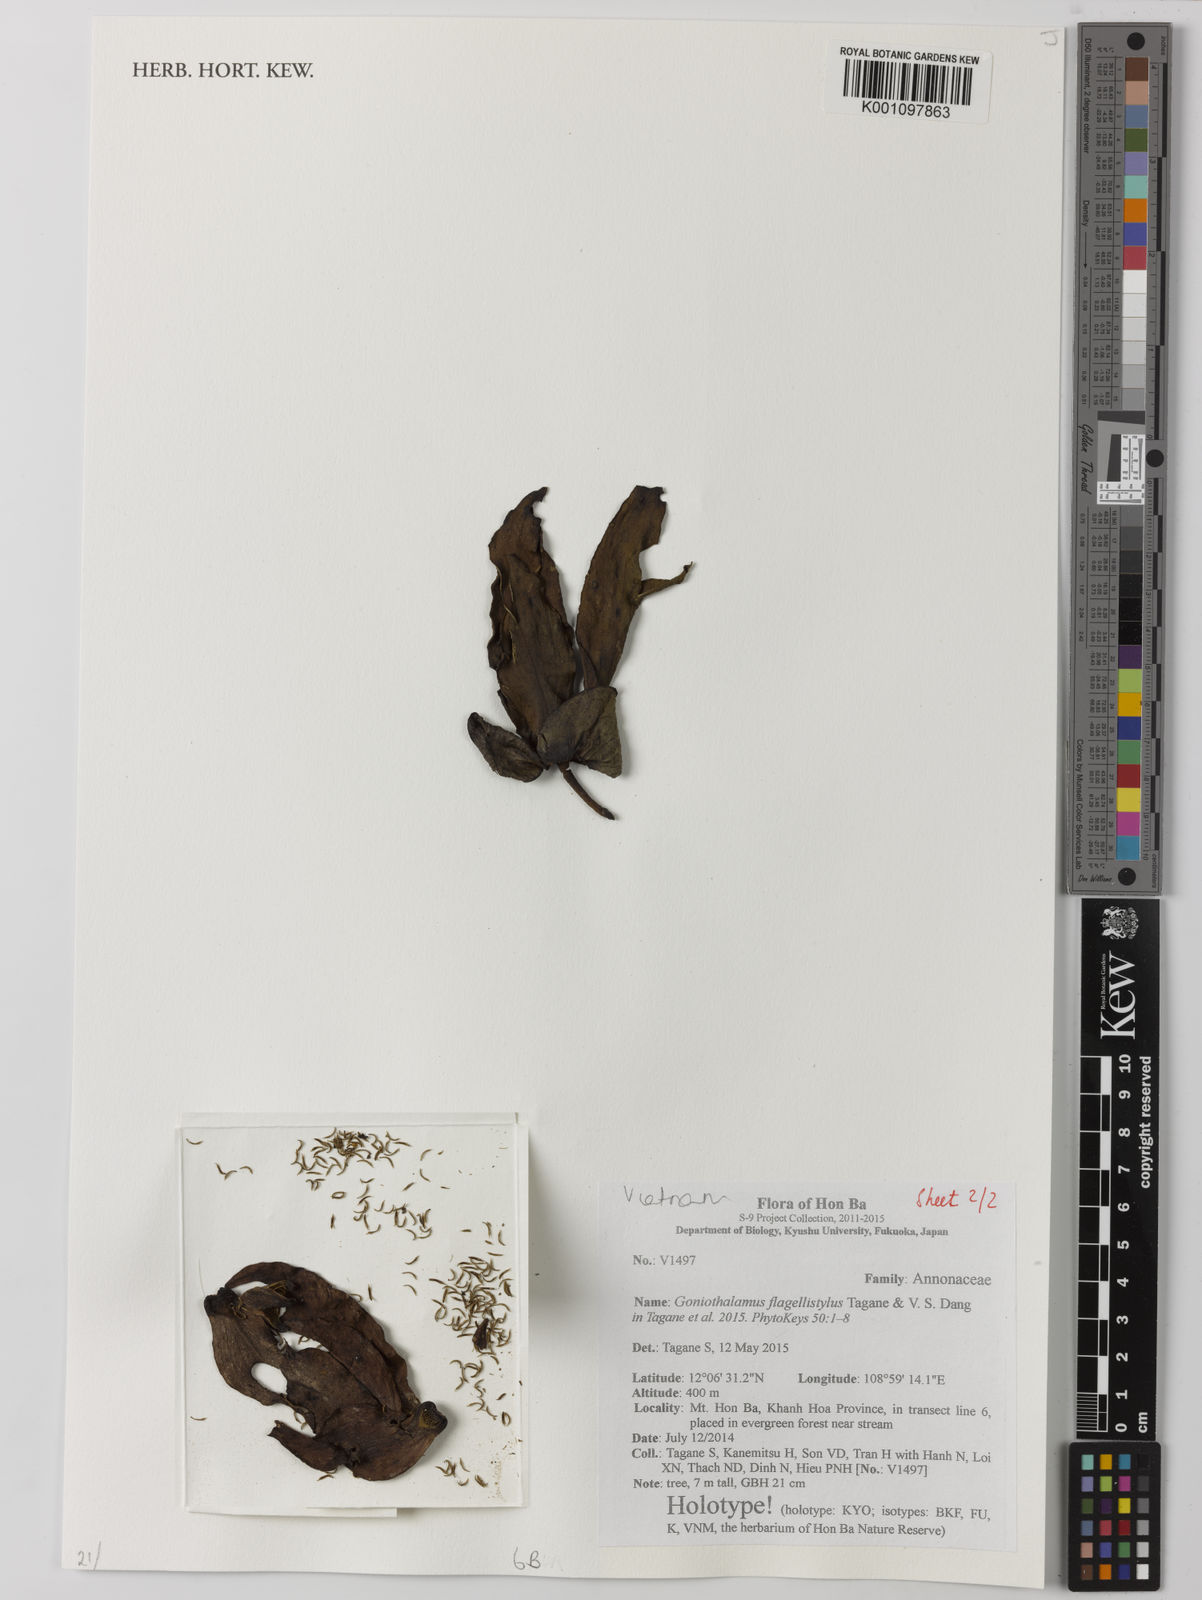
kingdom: Plantae
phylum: Tracheophyta
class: Magnoliopsida
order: Magnoliales
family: Annonaceae
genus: Goniothalamus
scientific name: Goniothalamus flagellistylus
